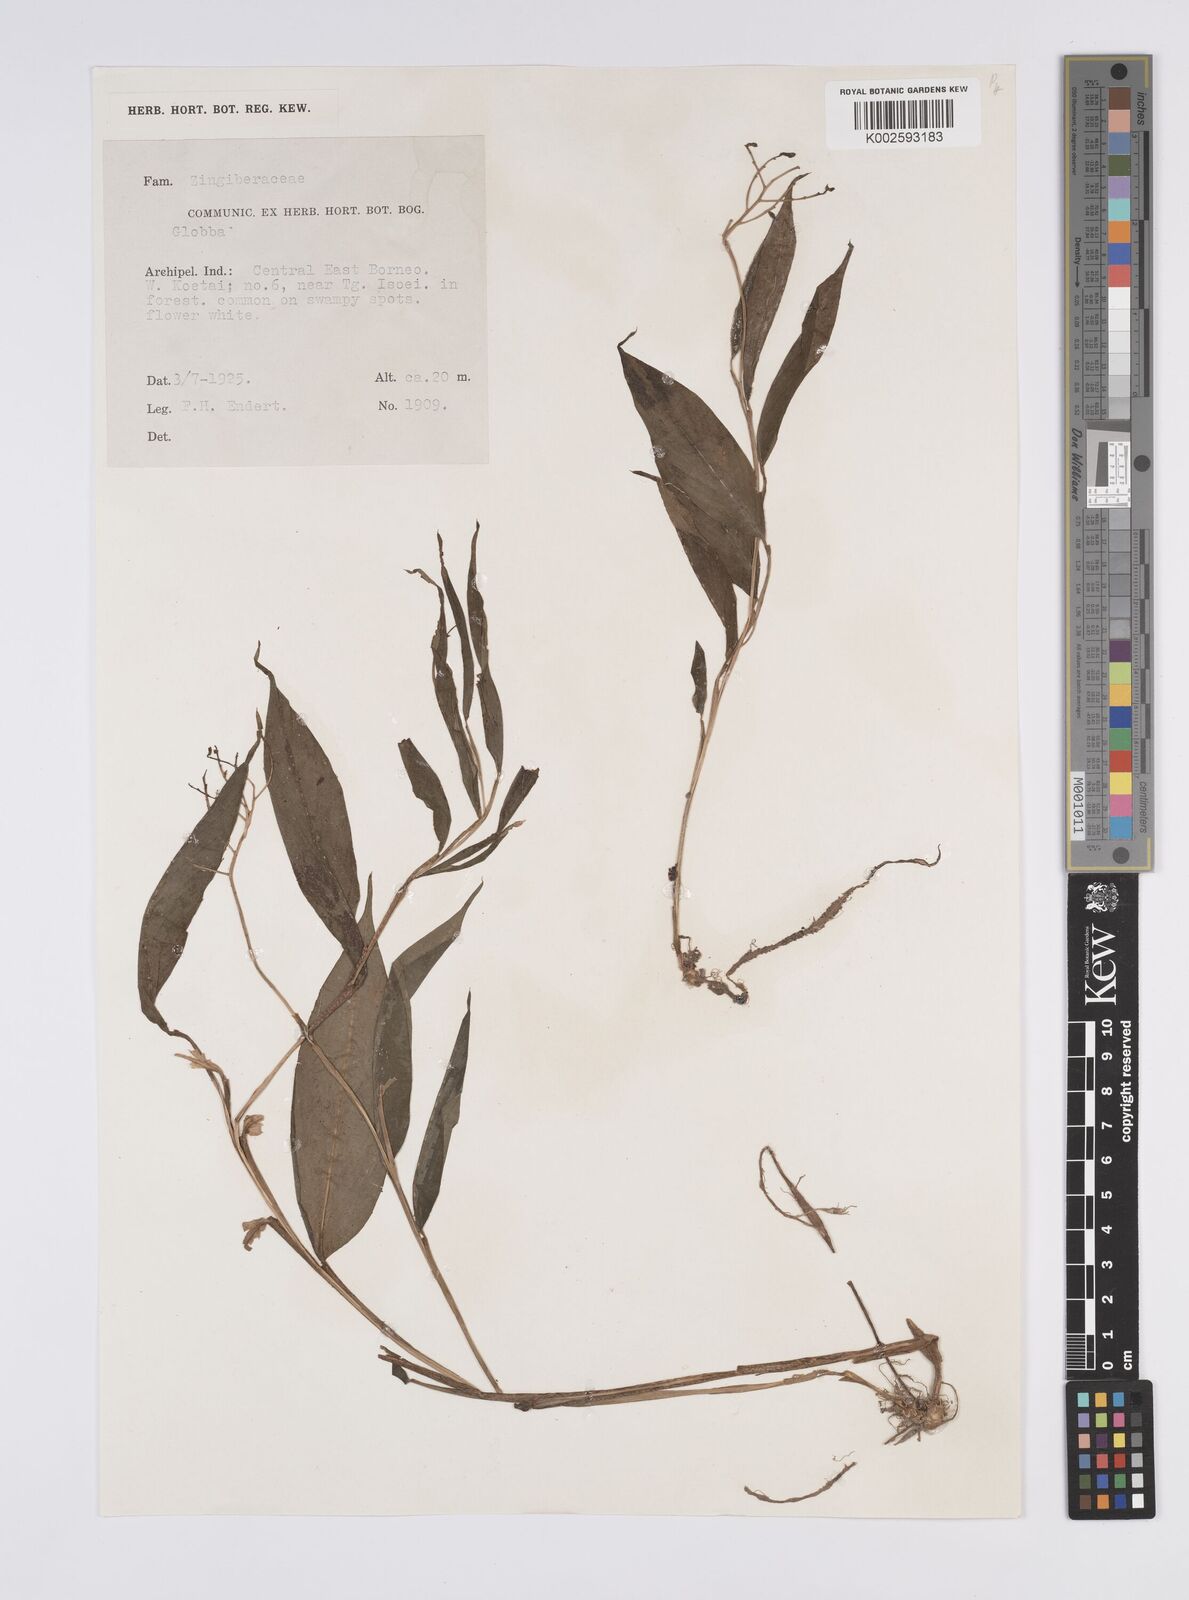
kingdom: Plantae
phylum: Tracheophyta
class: Liliopsida
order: Zingiberales
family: Zingiberaceae
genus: Globba
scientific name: Globba
